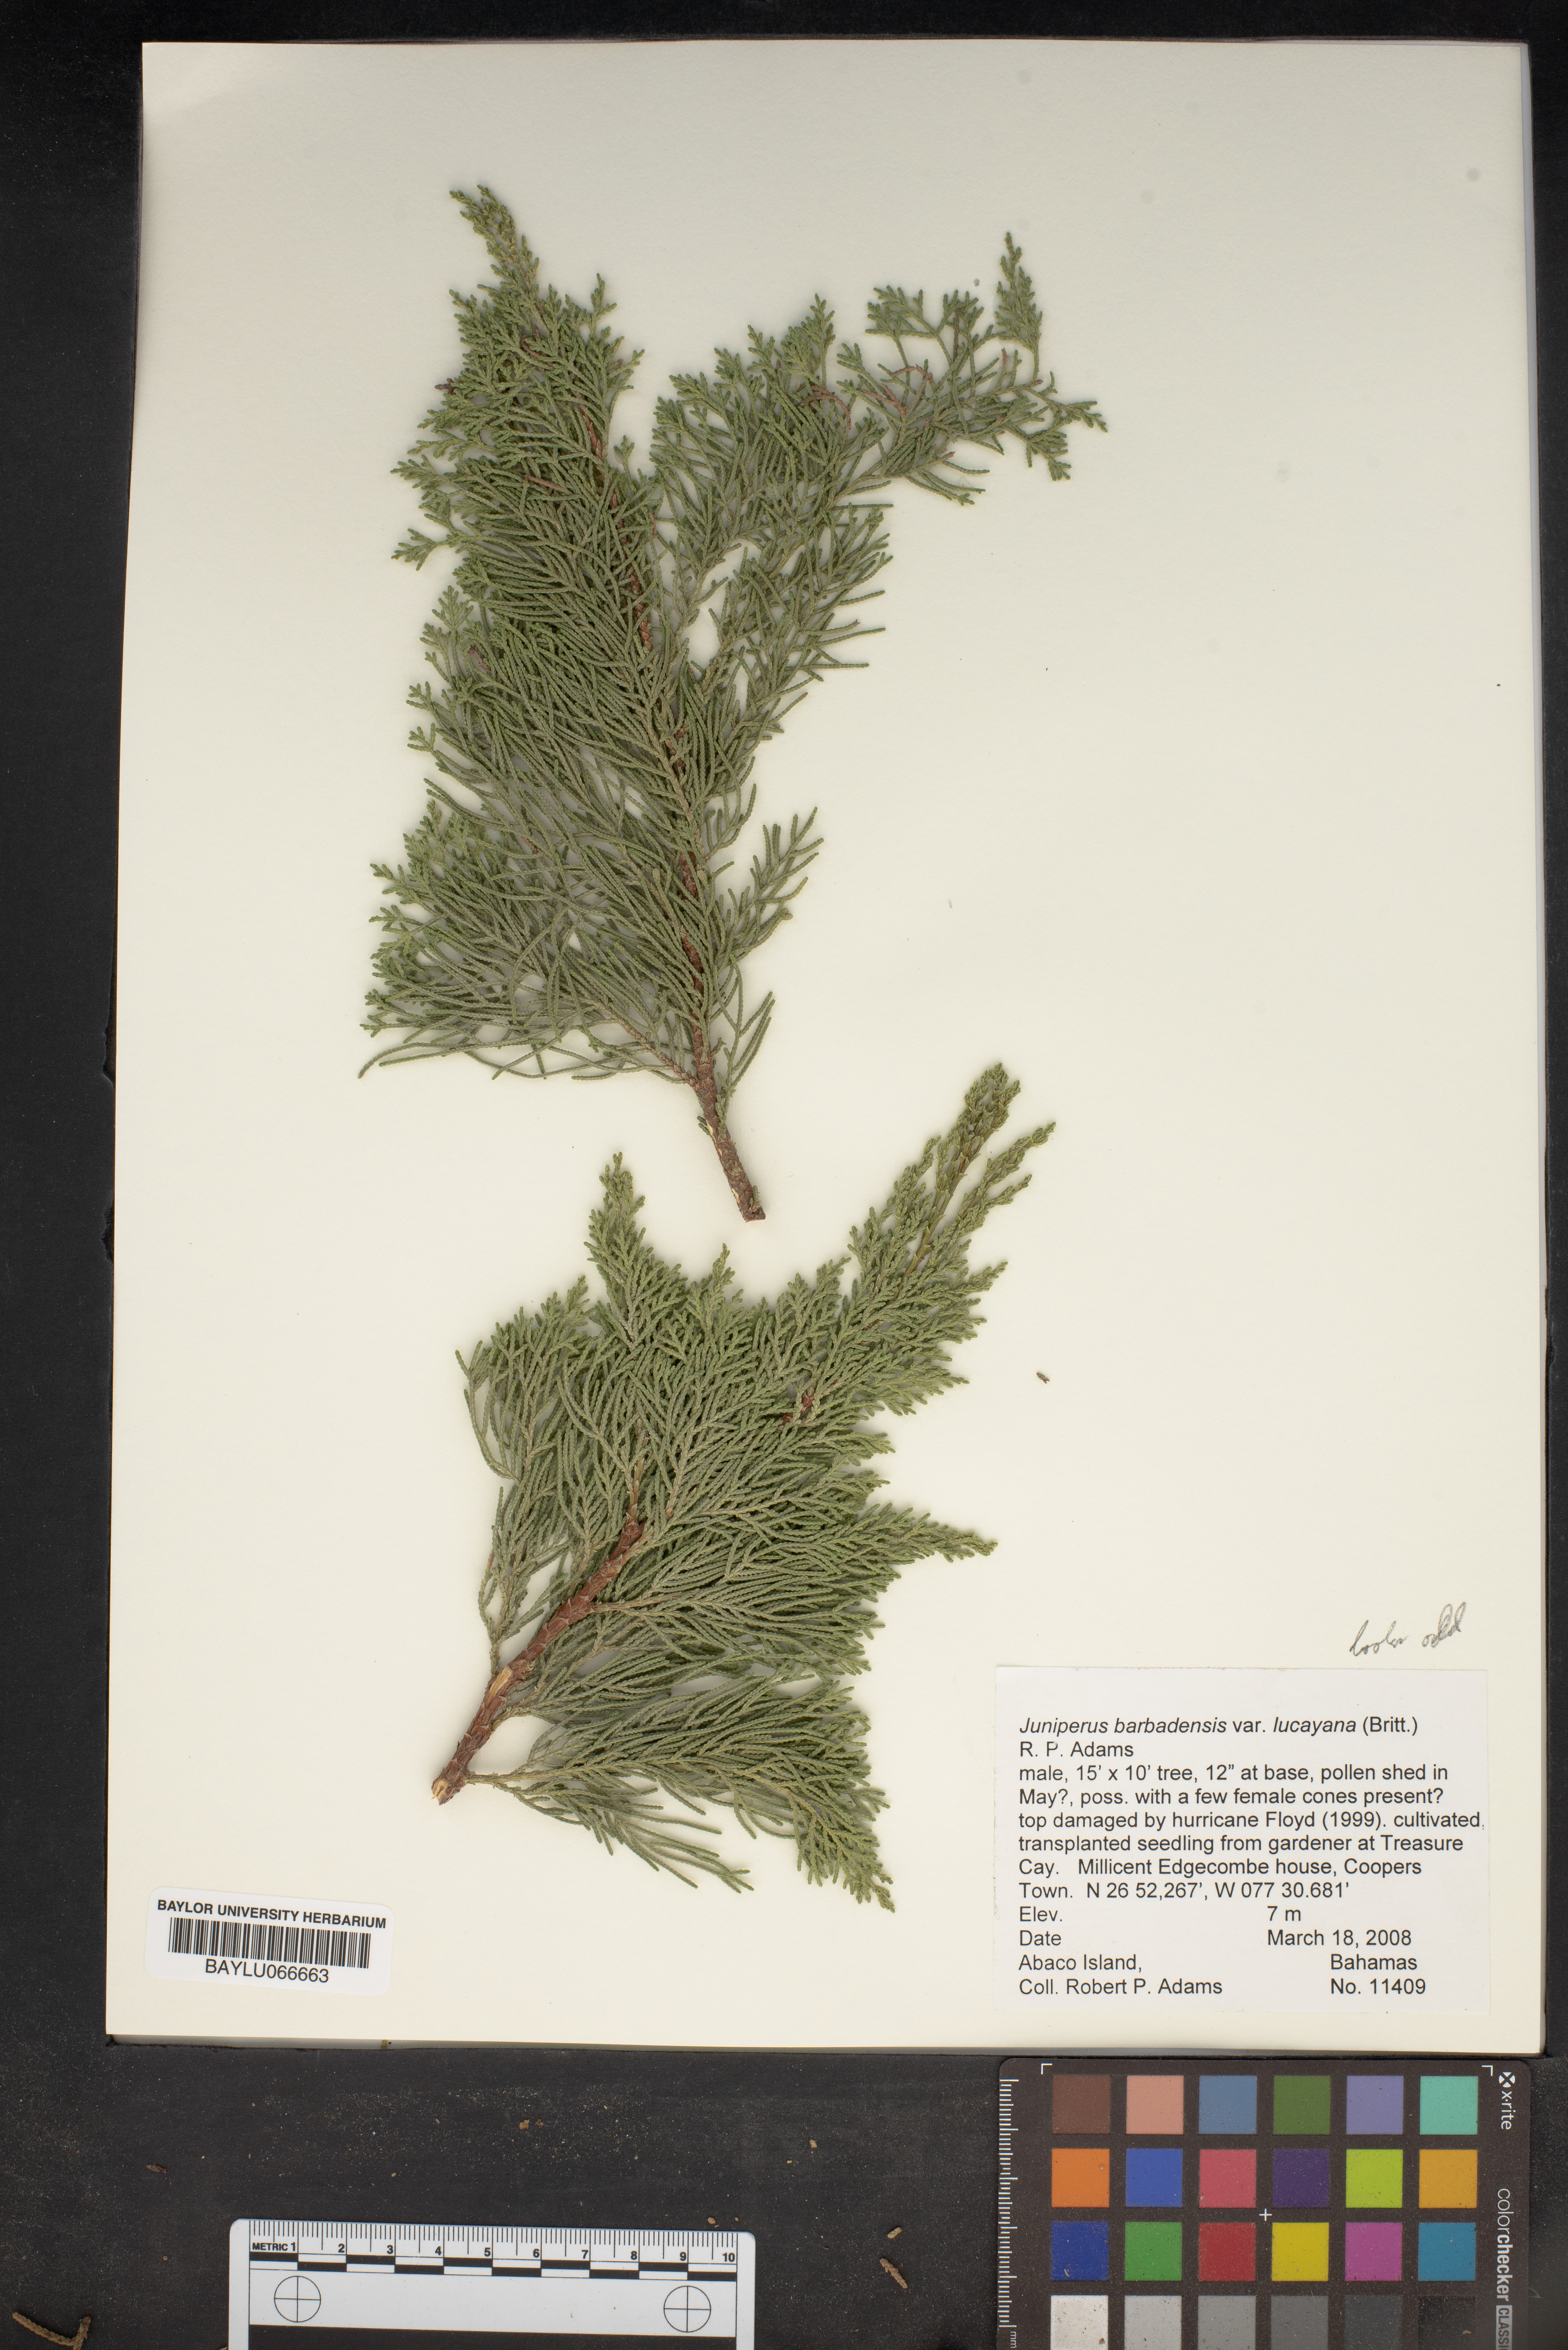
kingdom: Plantae
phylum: Tracheophyta
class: Pinopsida
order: Pinales
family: Cupressaceae
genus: Juniperus
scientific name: Juniperus barbadensis
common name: West indies juniper
